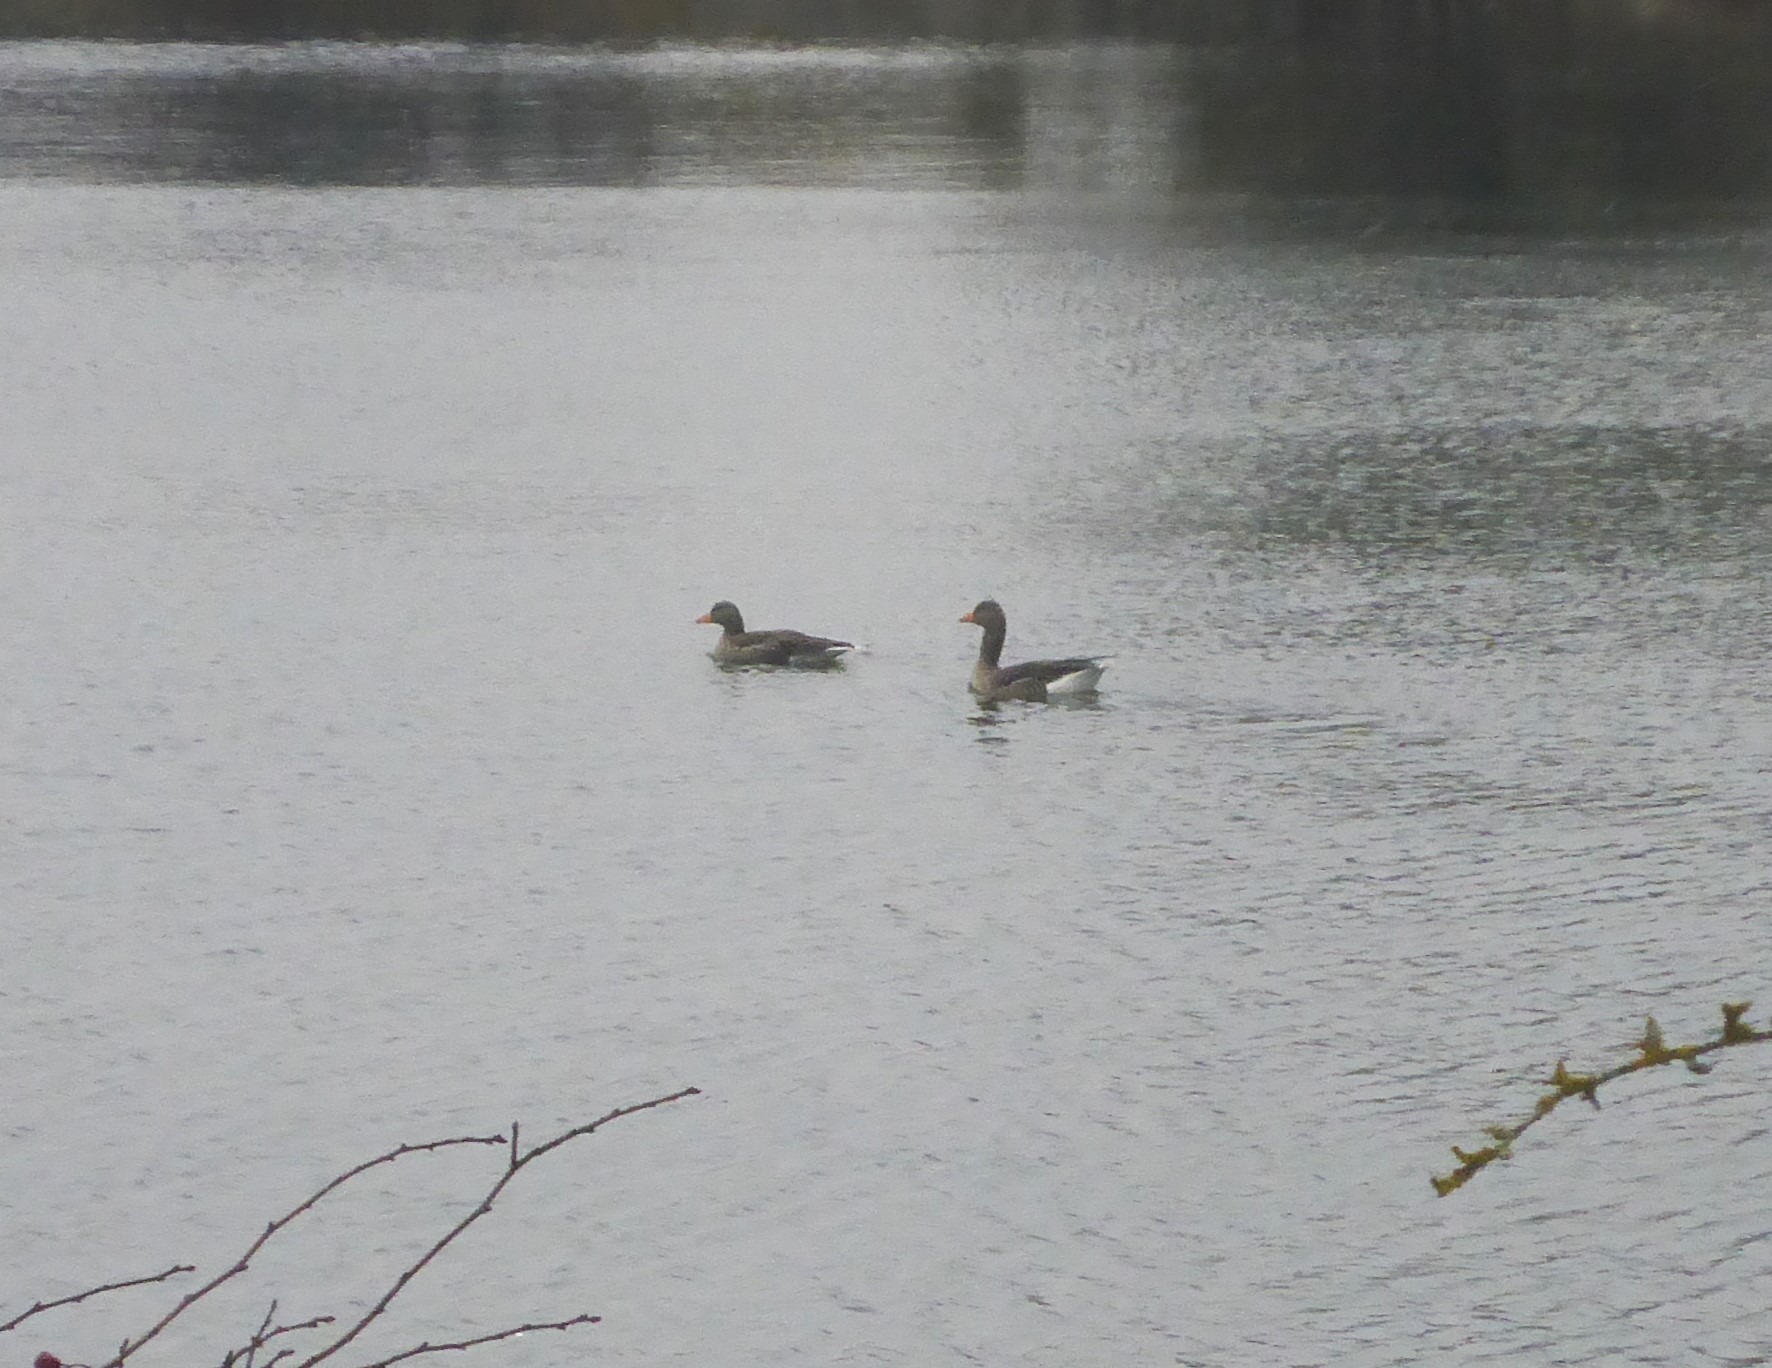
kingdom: Animalia
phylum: Chordata
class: Aves
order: Anseriformes
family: Anatidae
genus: Anser
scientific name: Anser anser
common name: Grågås
